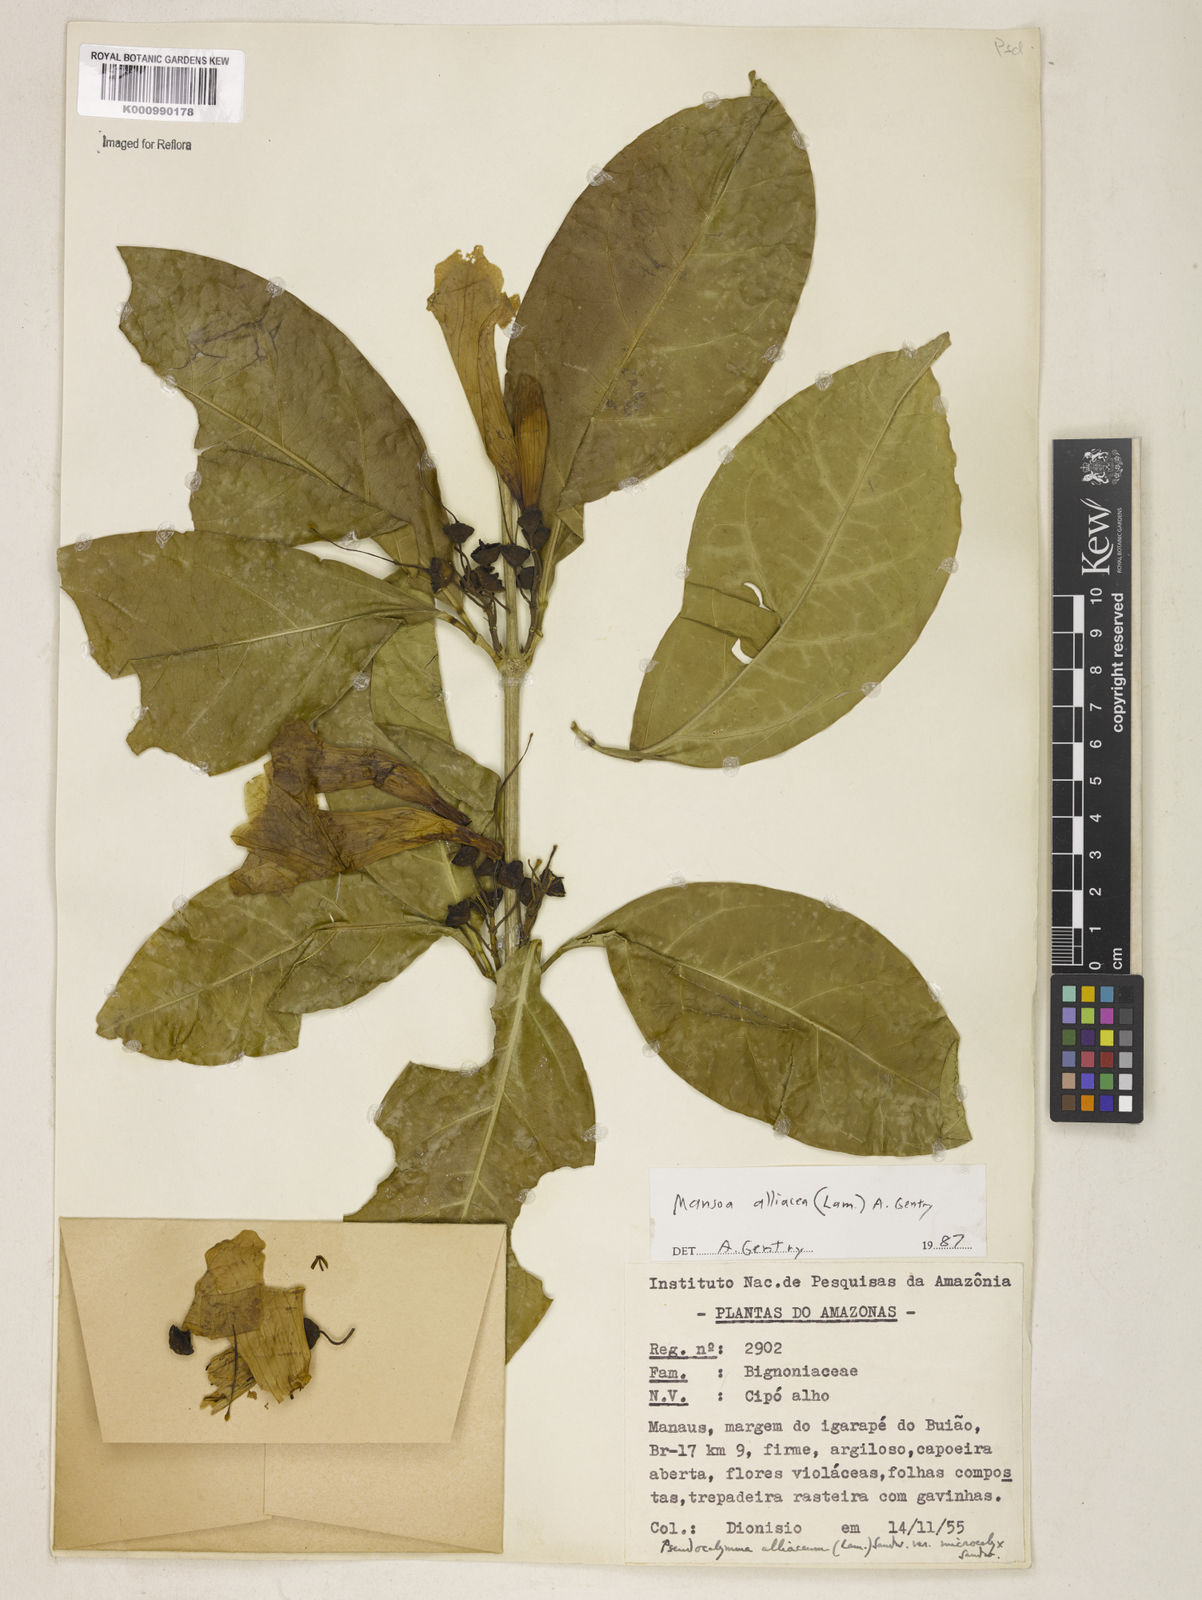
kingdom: Plantae
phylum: Tracheophyta
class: Magnoliopsida
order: Lamiales
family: Bignoniaceae
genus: Mansoa
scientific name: Mansoa alliacea
